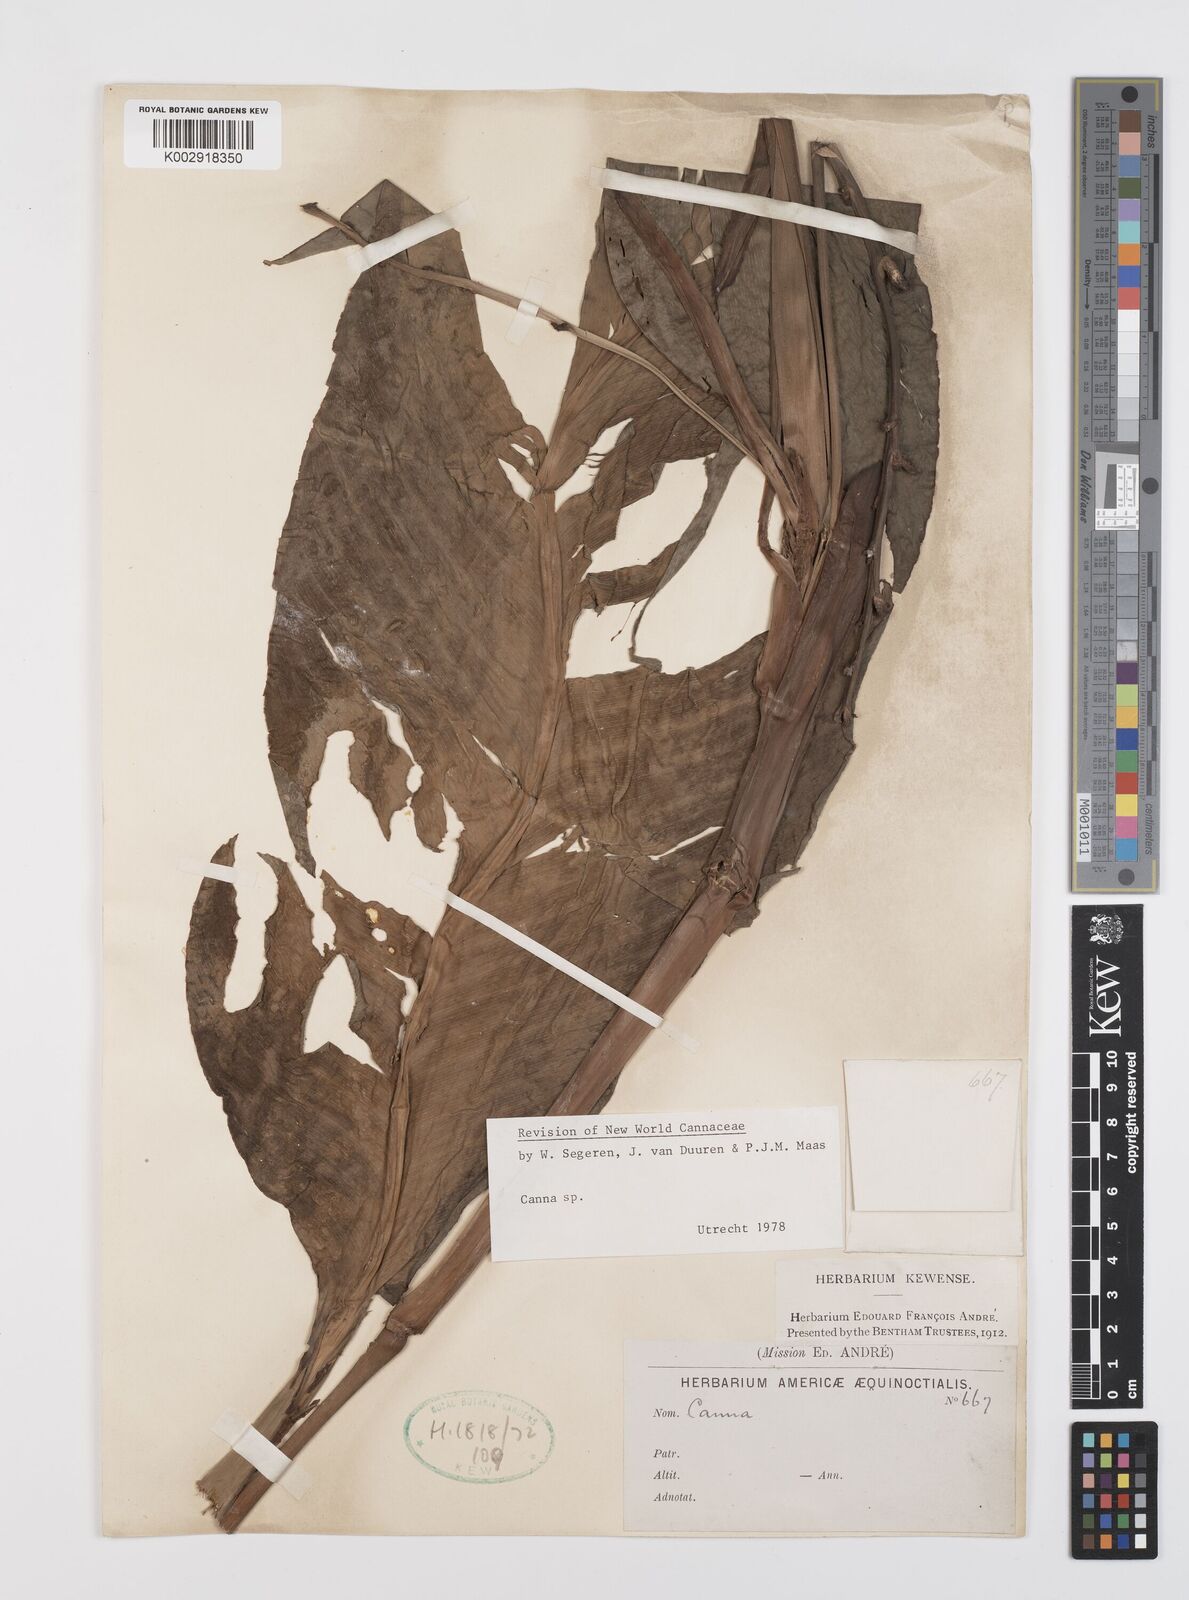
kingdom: Plantae
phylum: Tracheophyta
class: Liliopsida
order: Zingiberales
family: Cannaceae
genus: Canna
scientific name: Canna indica
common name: Indian shot
